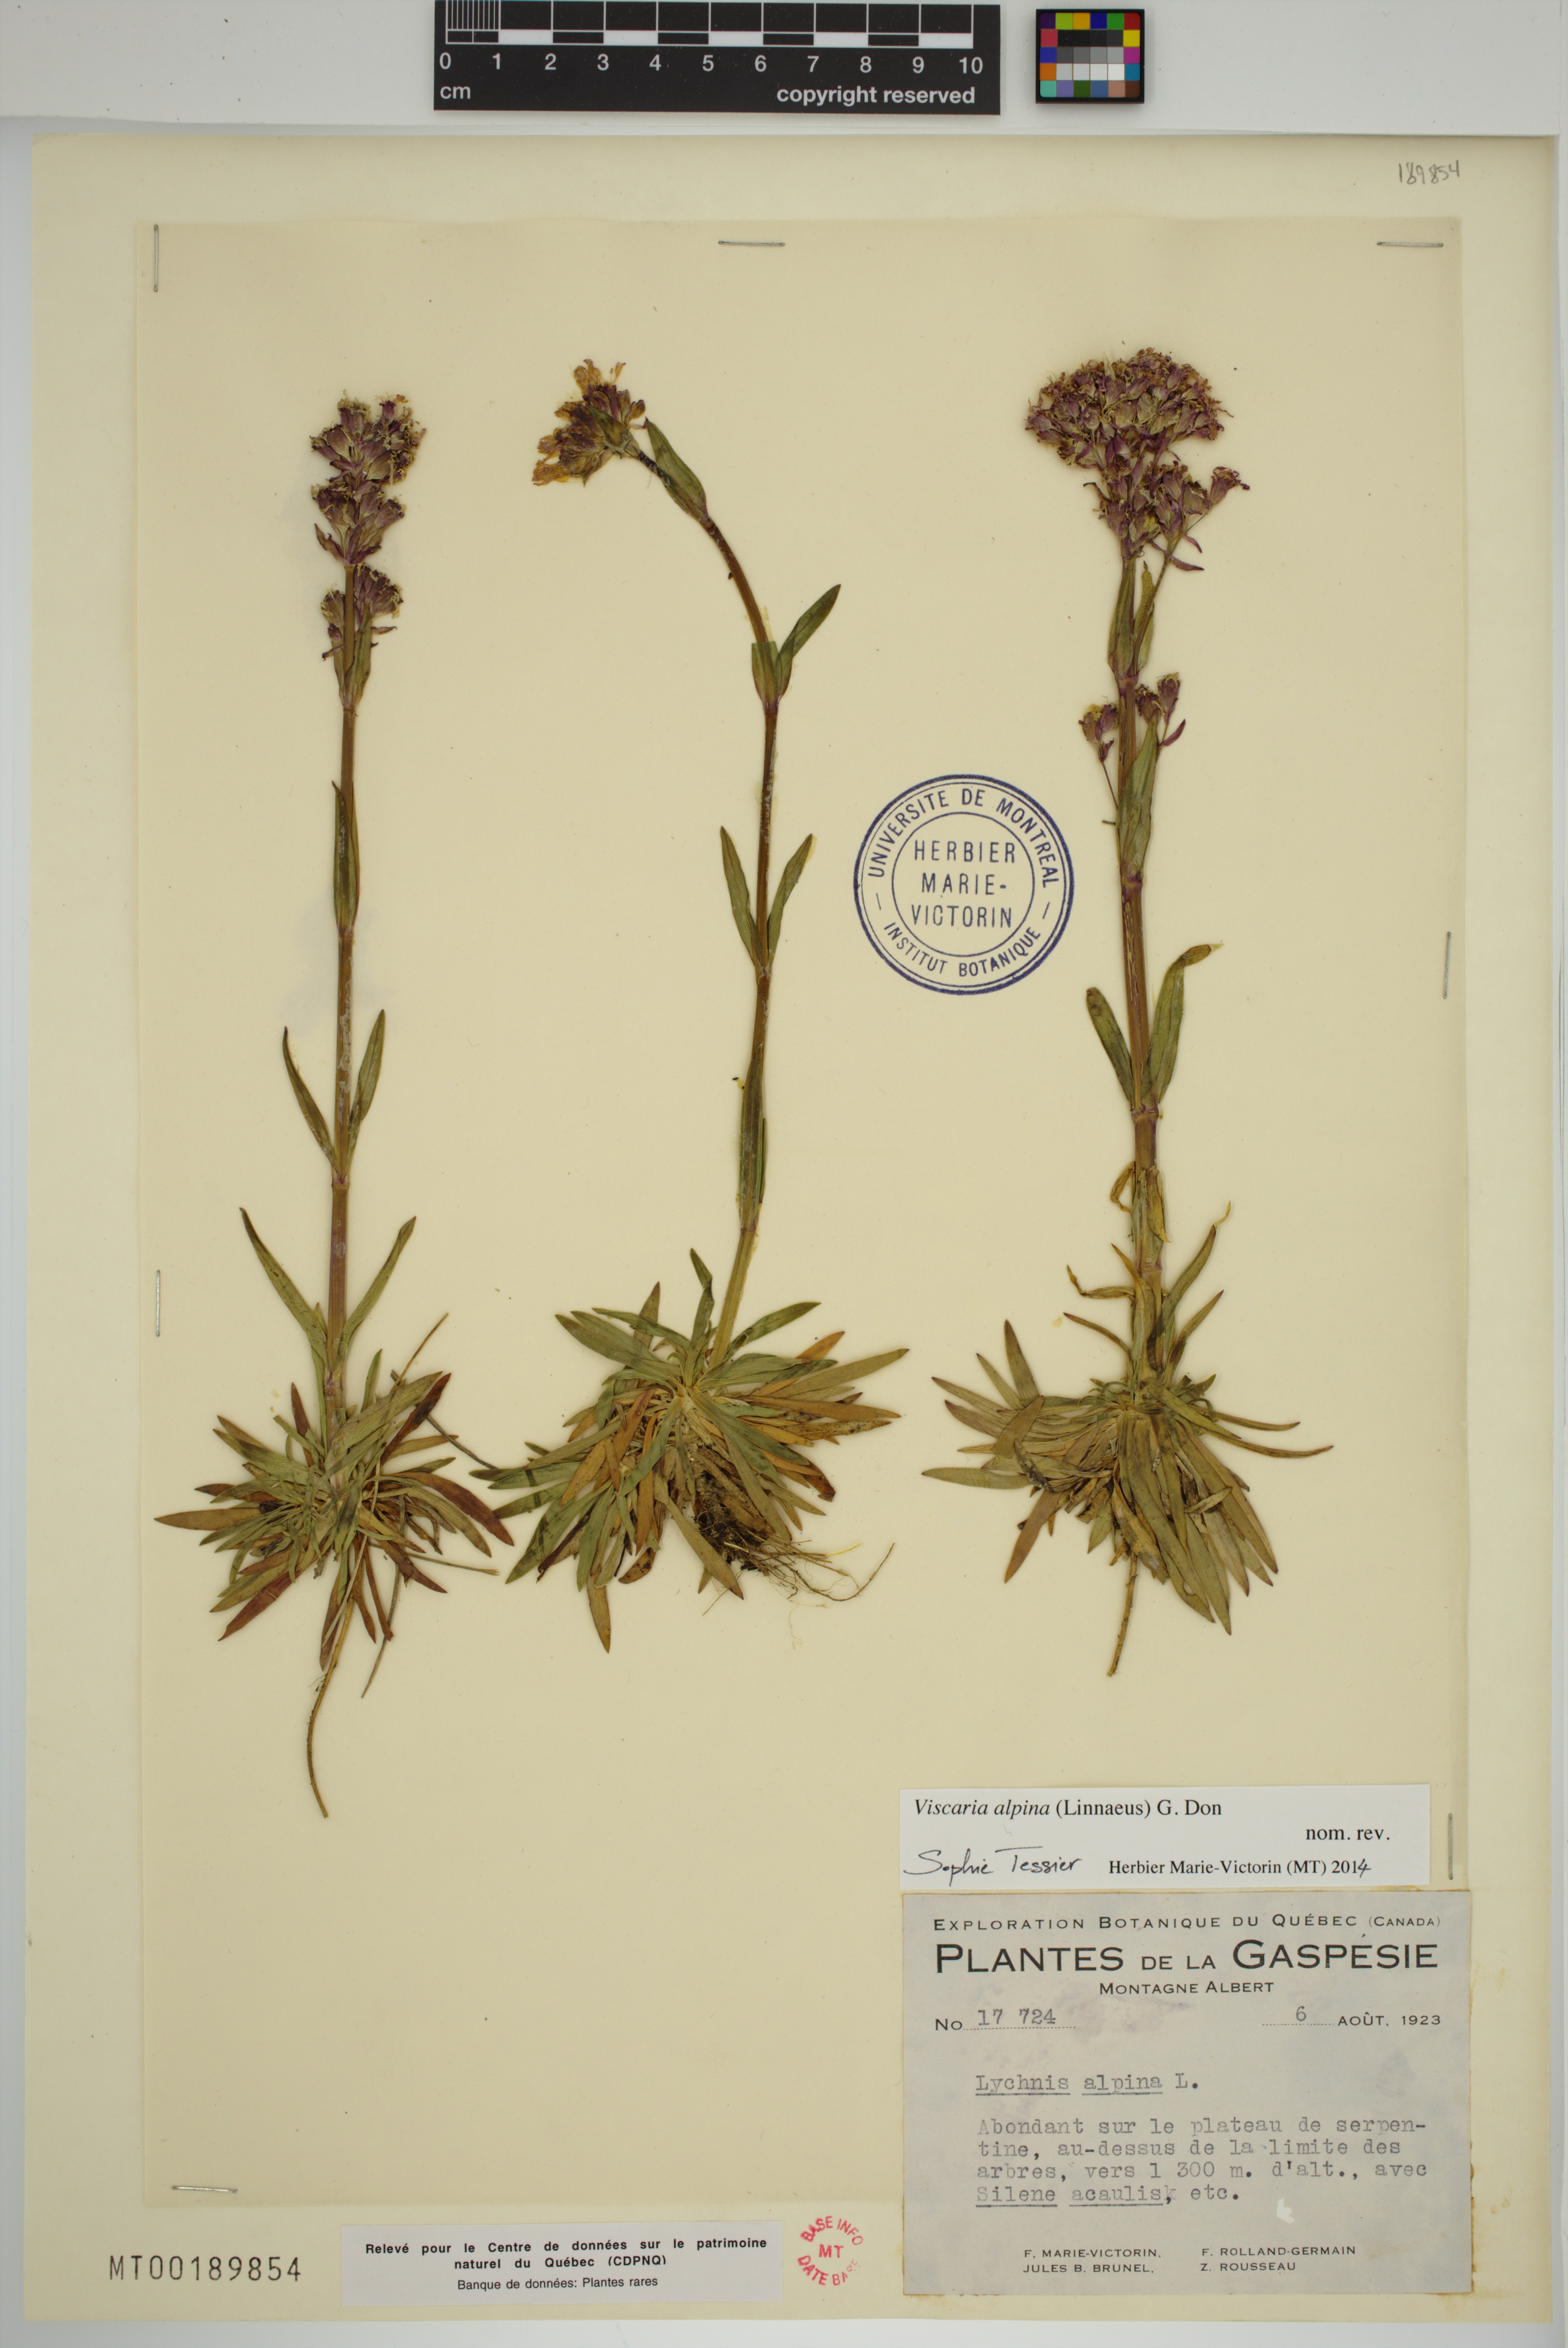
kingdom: Plantae
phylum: Tracheophyta
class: Magnoliopsida
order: Caryophyllales
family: Caryophyllaceae
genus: Viscaria
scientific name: Viscaria alpina
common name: Alpine campion
